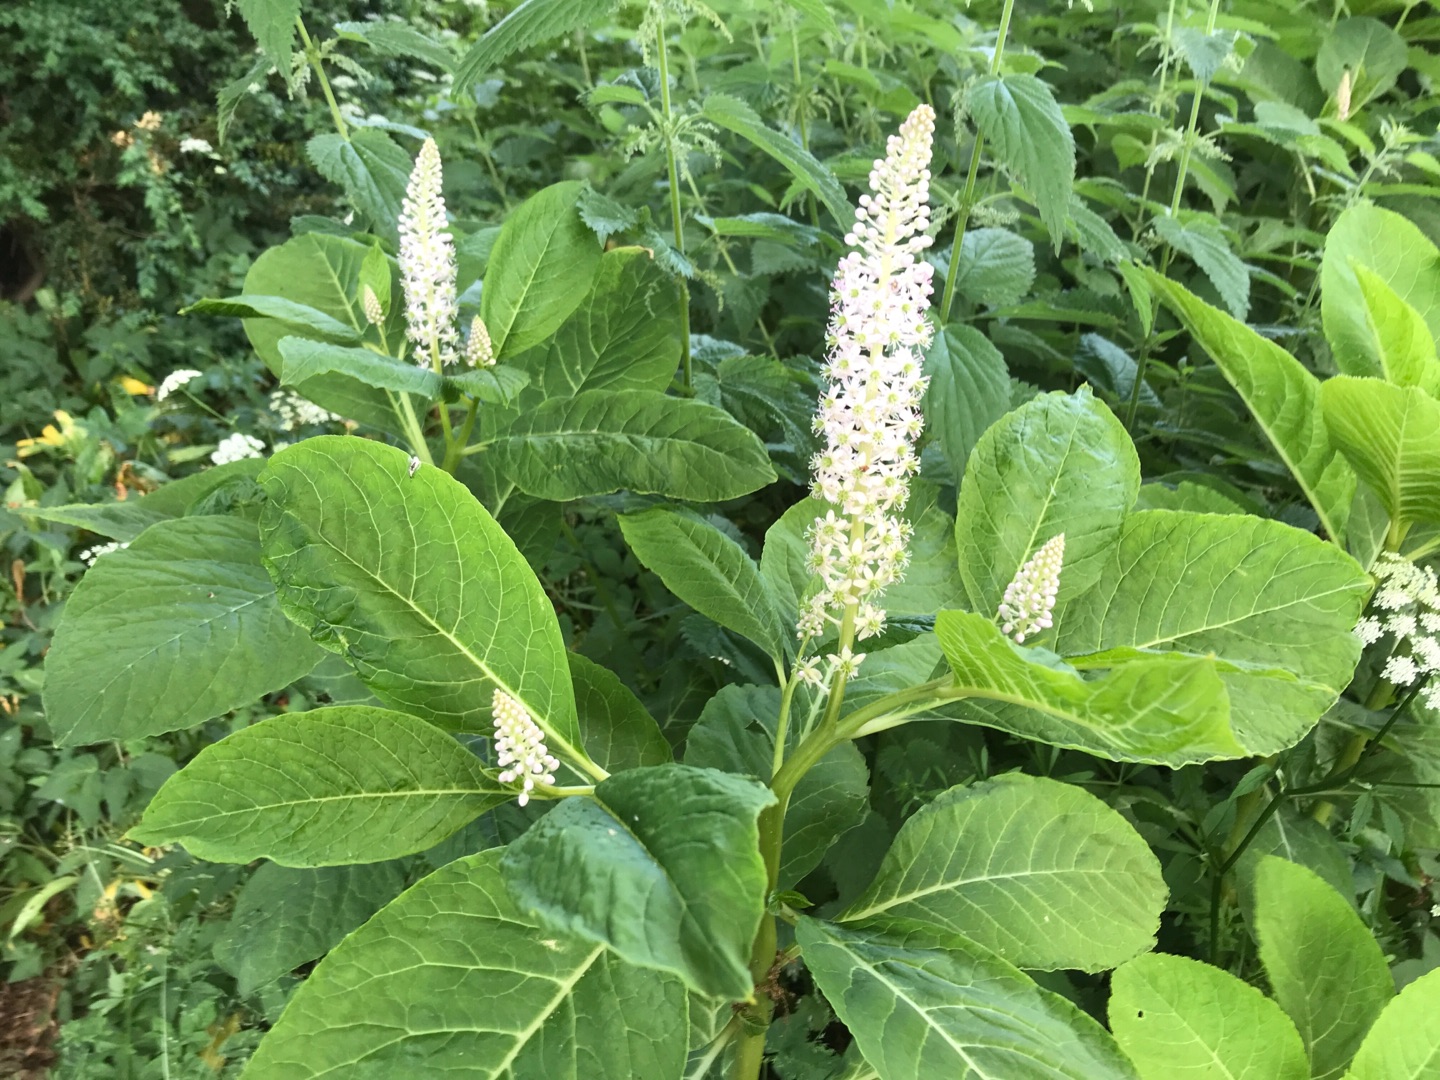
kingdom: Plantae
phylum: Tracheophyta
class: Magnoliopsida
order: Caryophyllales
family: Phytolaccaceae
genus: Phytolacca
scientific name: Phytolacca acinosa
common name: Asiatisk kermesbær
